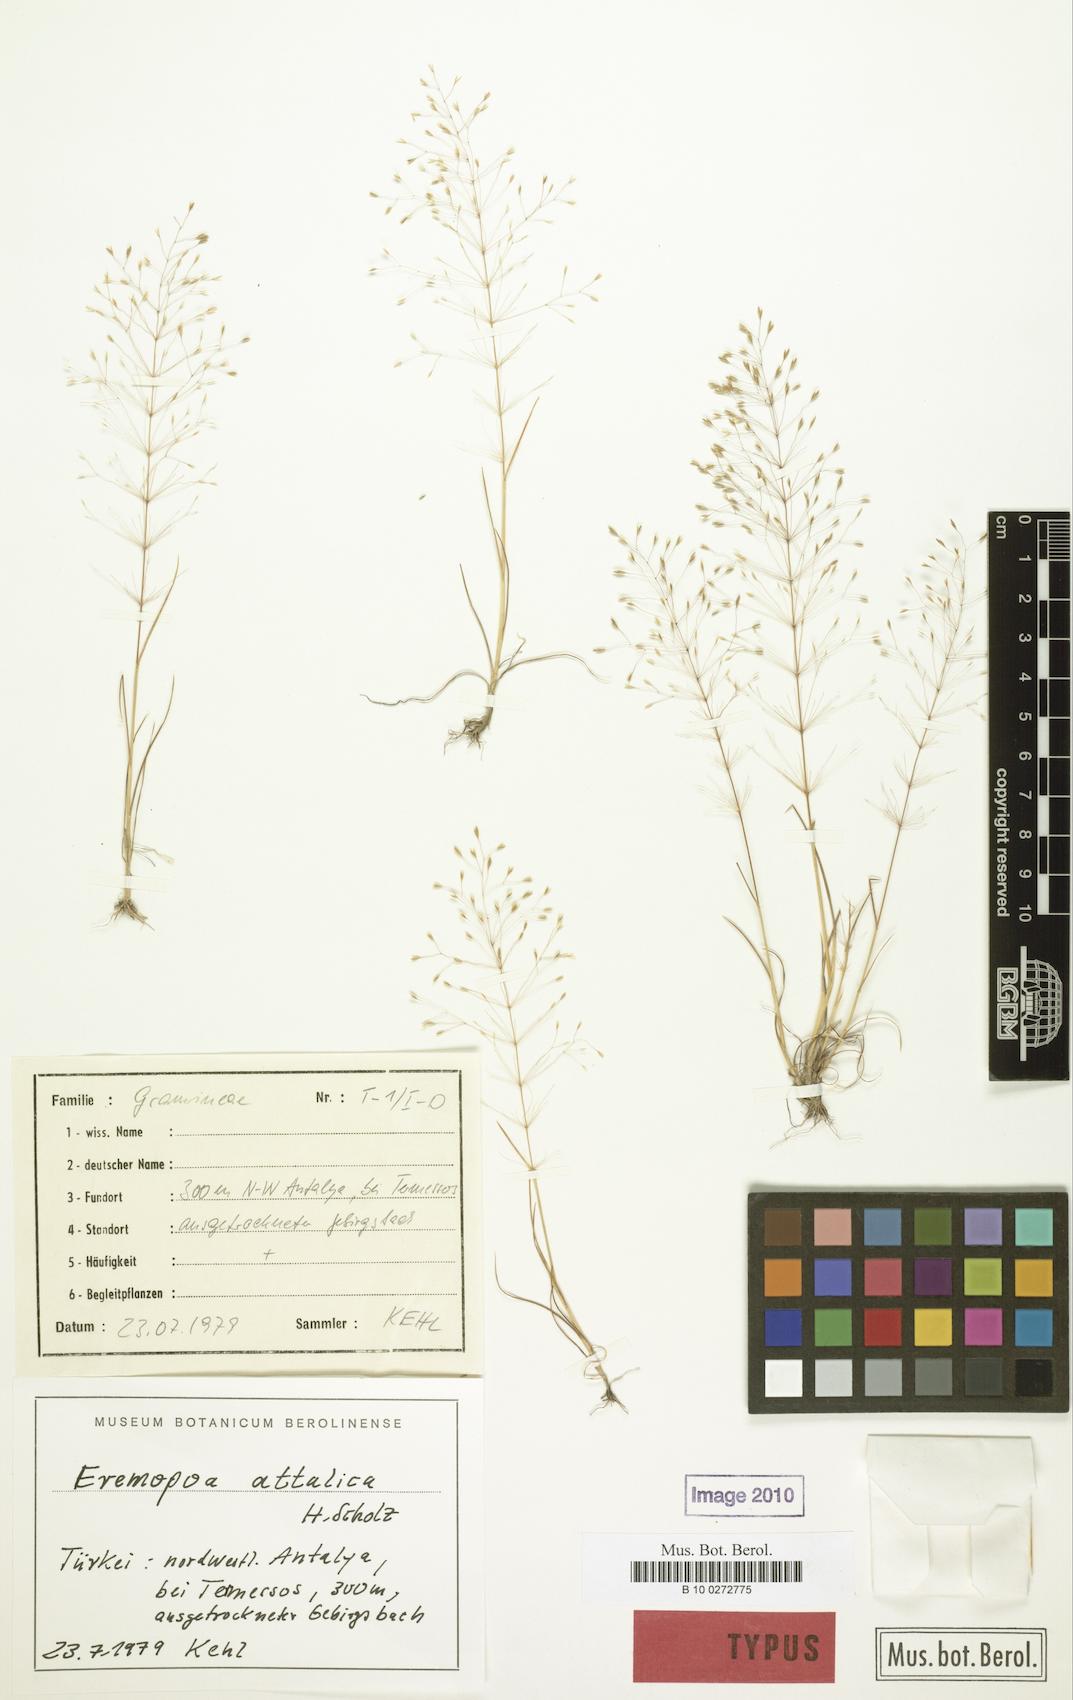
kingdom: Plantae
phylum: Tracheophyta
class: Liliopsida
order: Poales
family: Poaceae
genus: Poa
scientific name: Poa attalica
